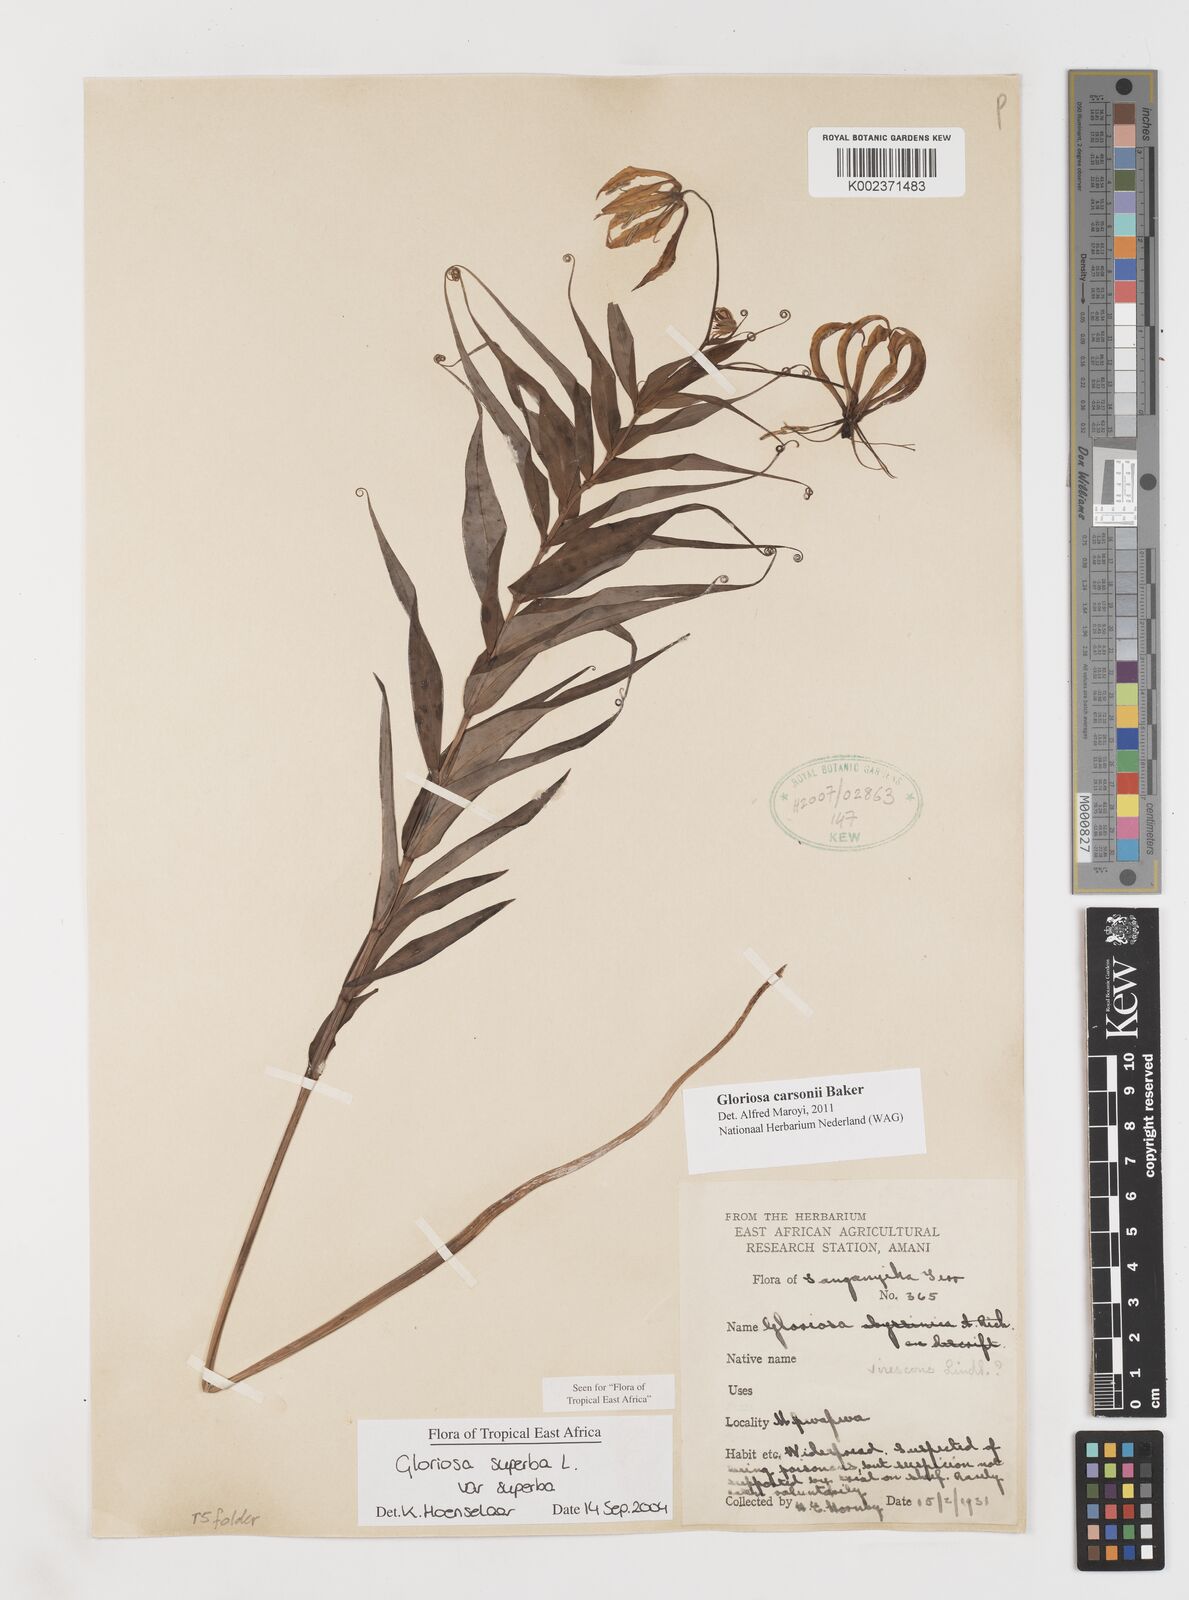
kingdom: Plantae
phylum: Tracheophyta
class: Liliopsida
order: Liliales
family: Colchicaceae
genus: Gloriosa
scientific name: Gloriosa carsonii
